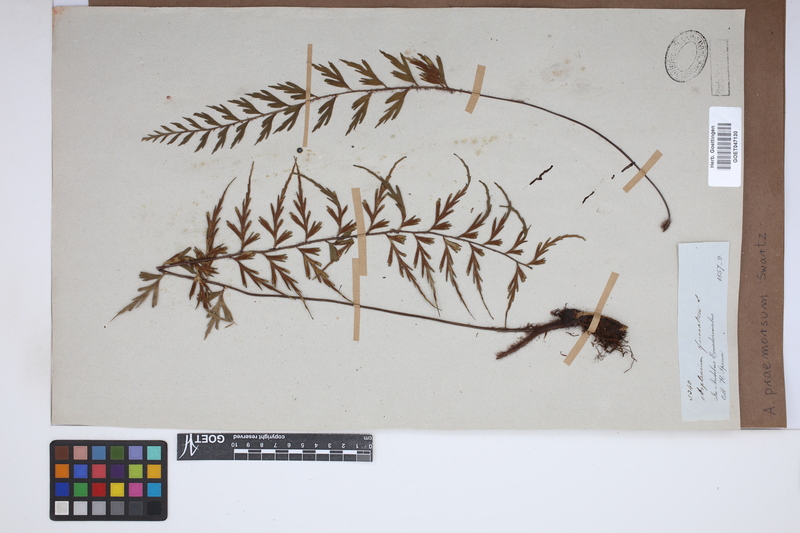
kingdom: Plantae
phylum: Tracheophyta
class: Polypodiopsida
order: Polypodiales
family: Aspleniaceae
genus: Asplenium
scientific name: Asplenium praemorsum
